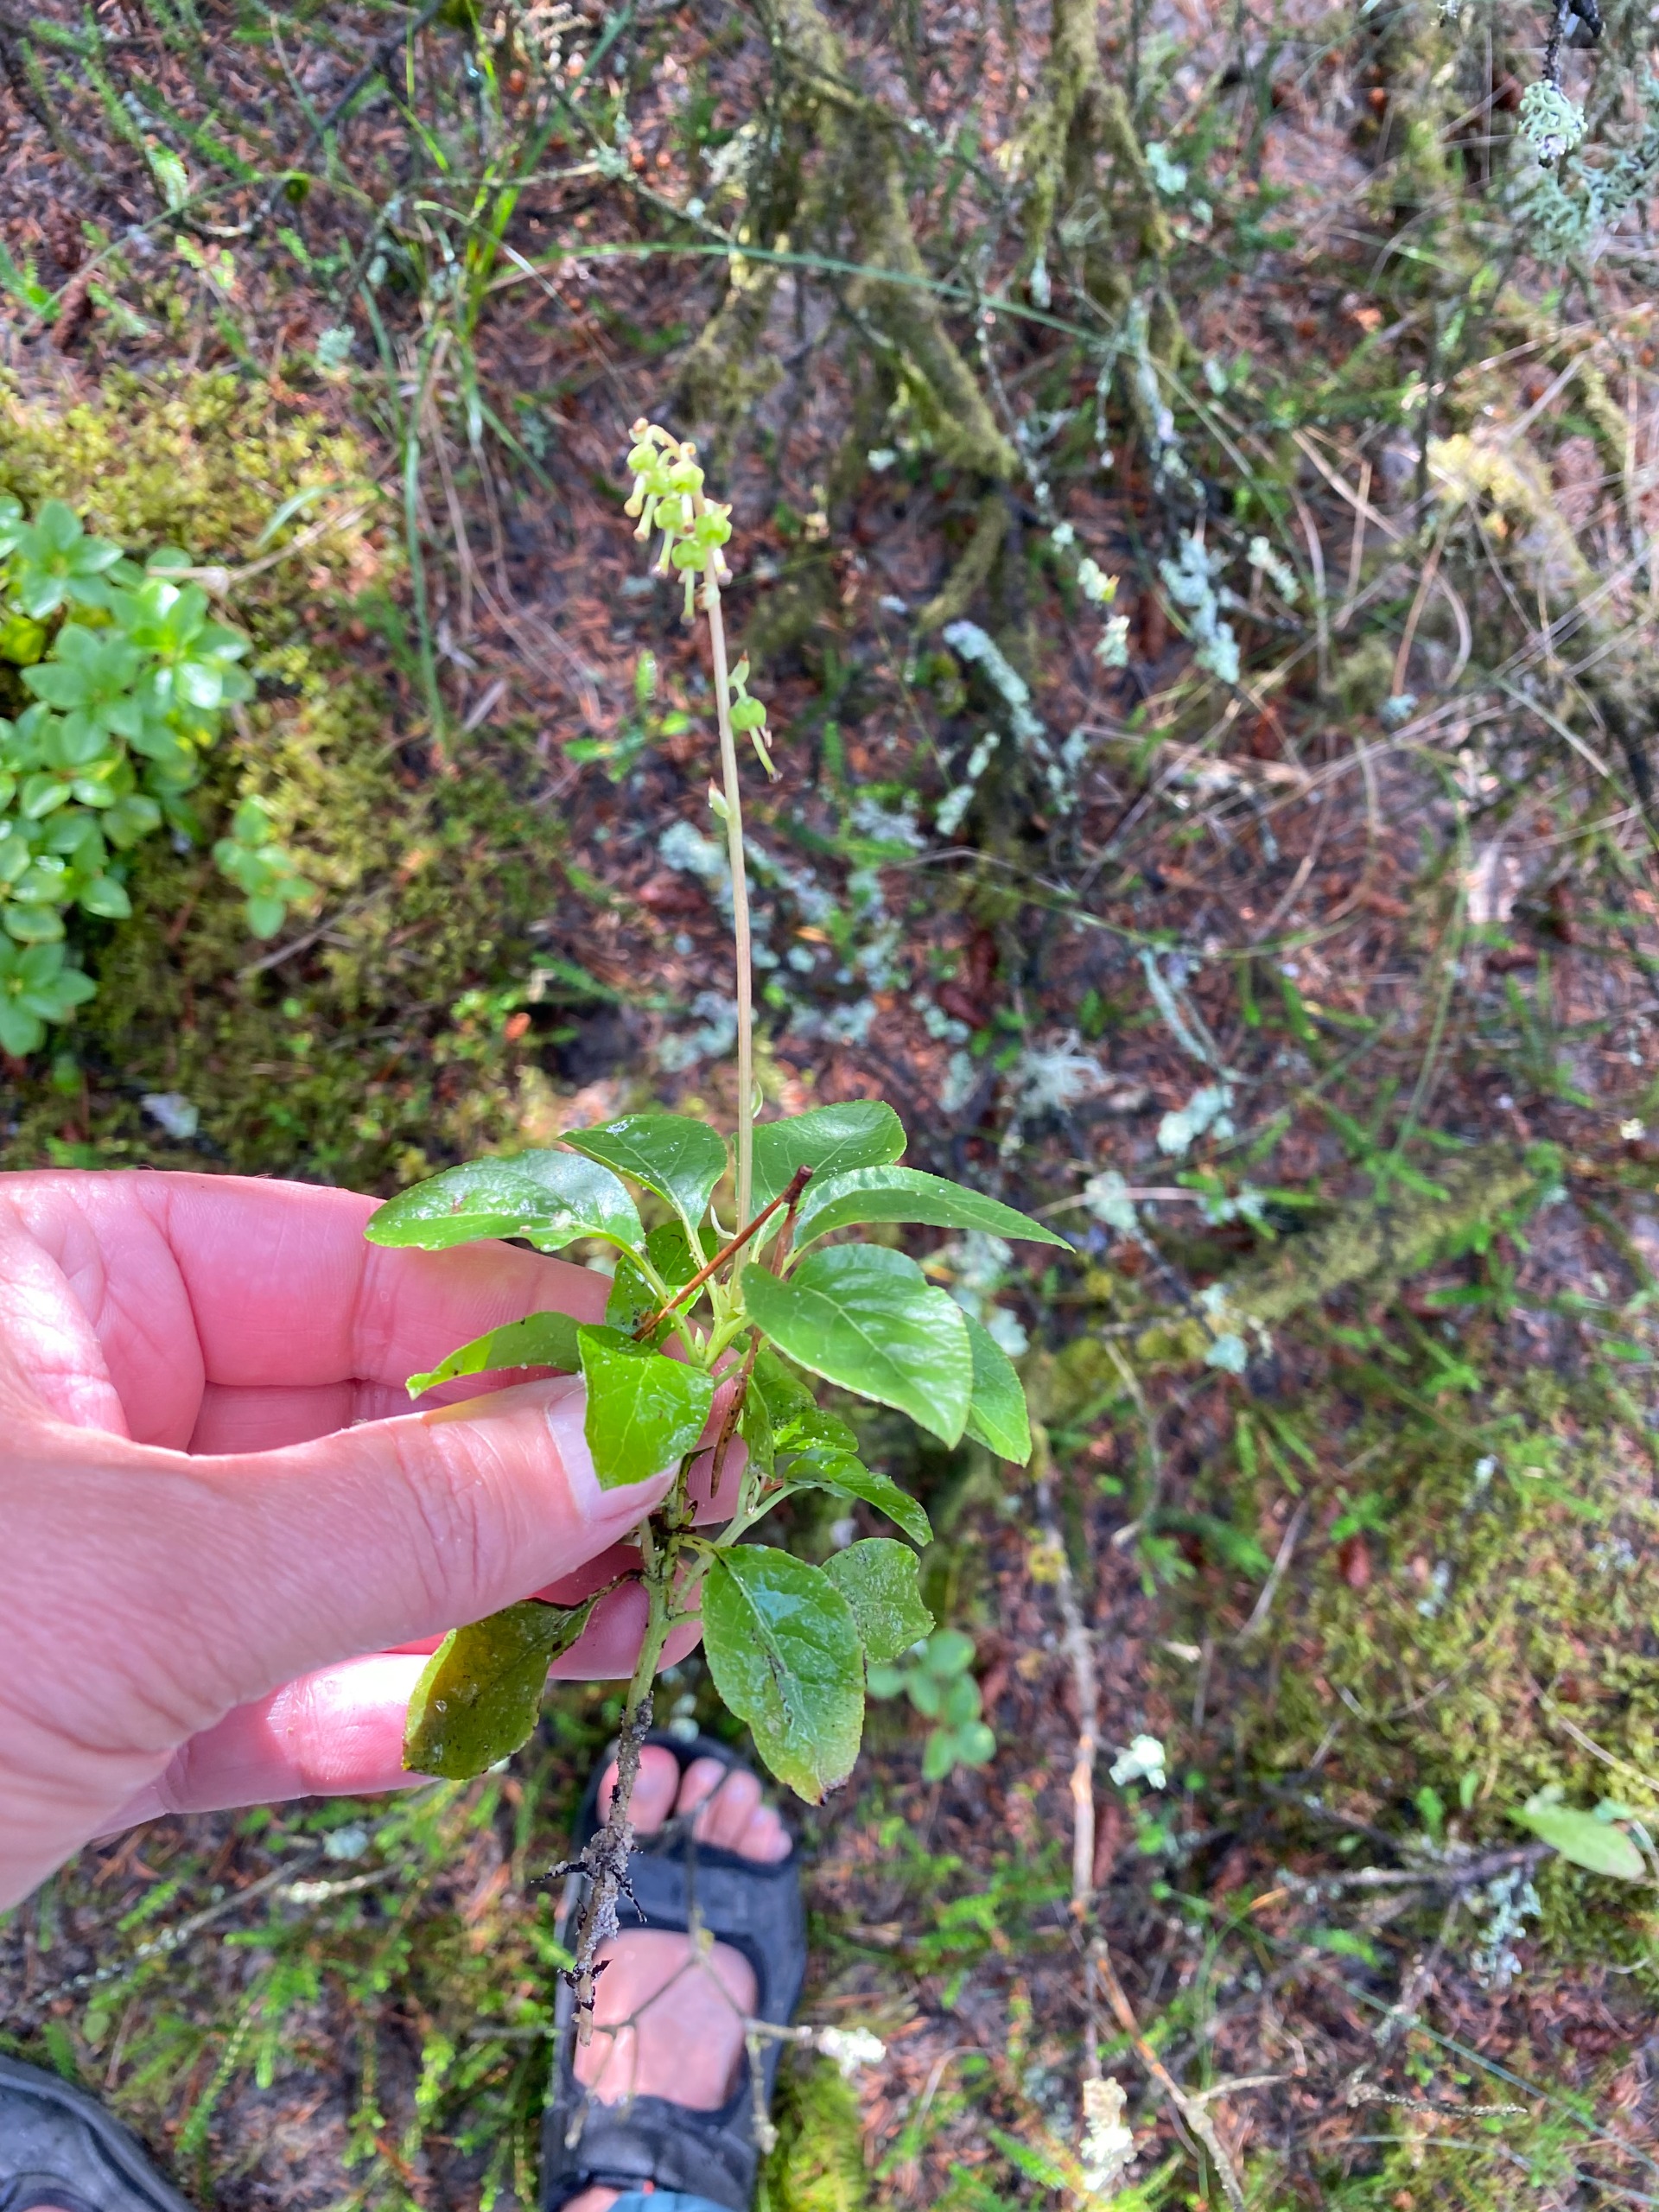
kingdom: Plantae
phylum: Tracheophyta
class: Magnoliopsida
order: Ericales
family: Ericaceae
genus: Orthilia
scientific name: Orthilia secunda
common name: Ensidig vintergrøn
